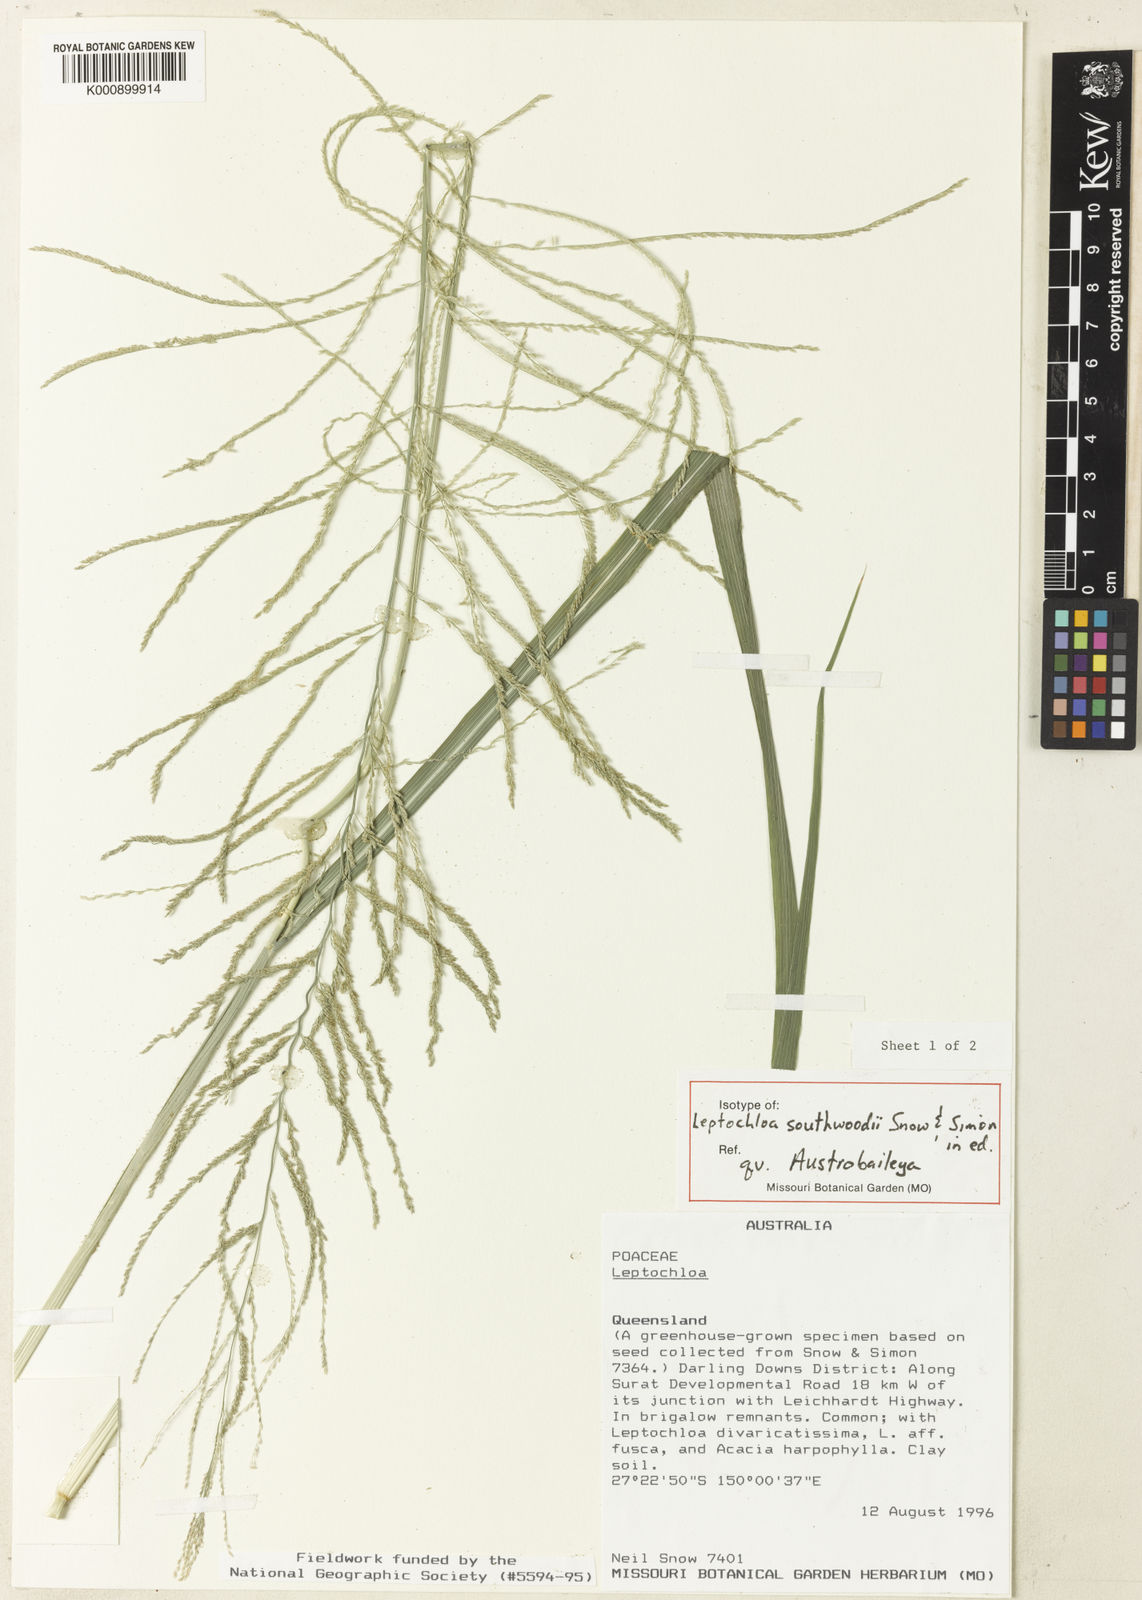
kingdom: Plantae
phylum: Tracheophyta
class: Liliopsida
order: Poales
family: Poaceae
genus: Leptochloa
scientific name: Leptochloa southwoodii
